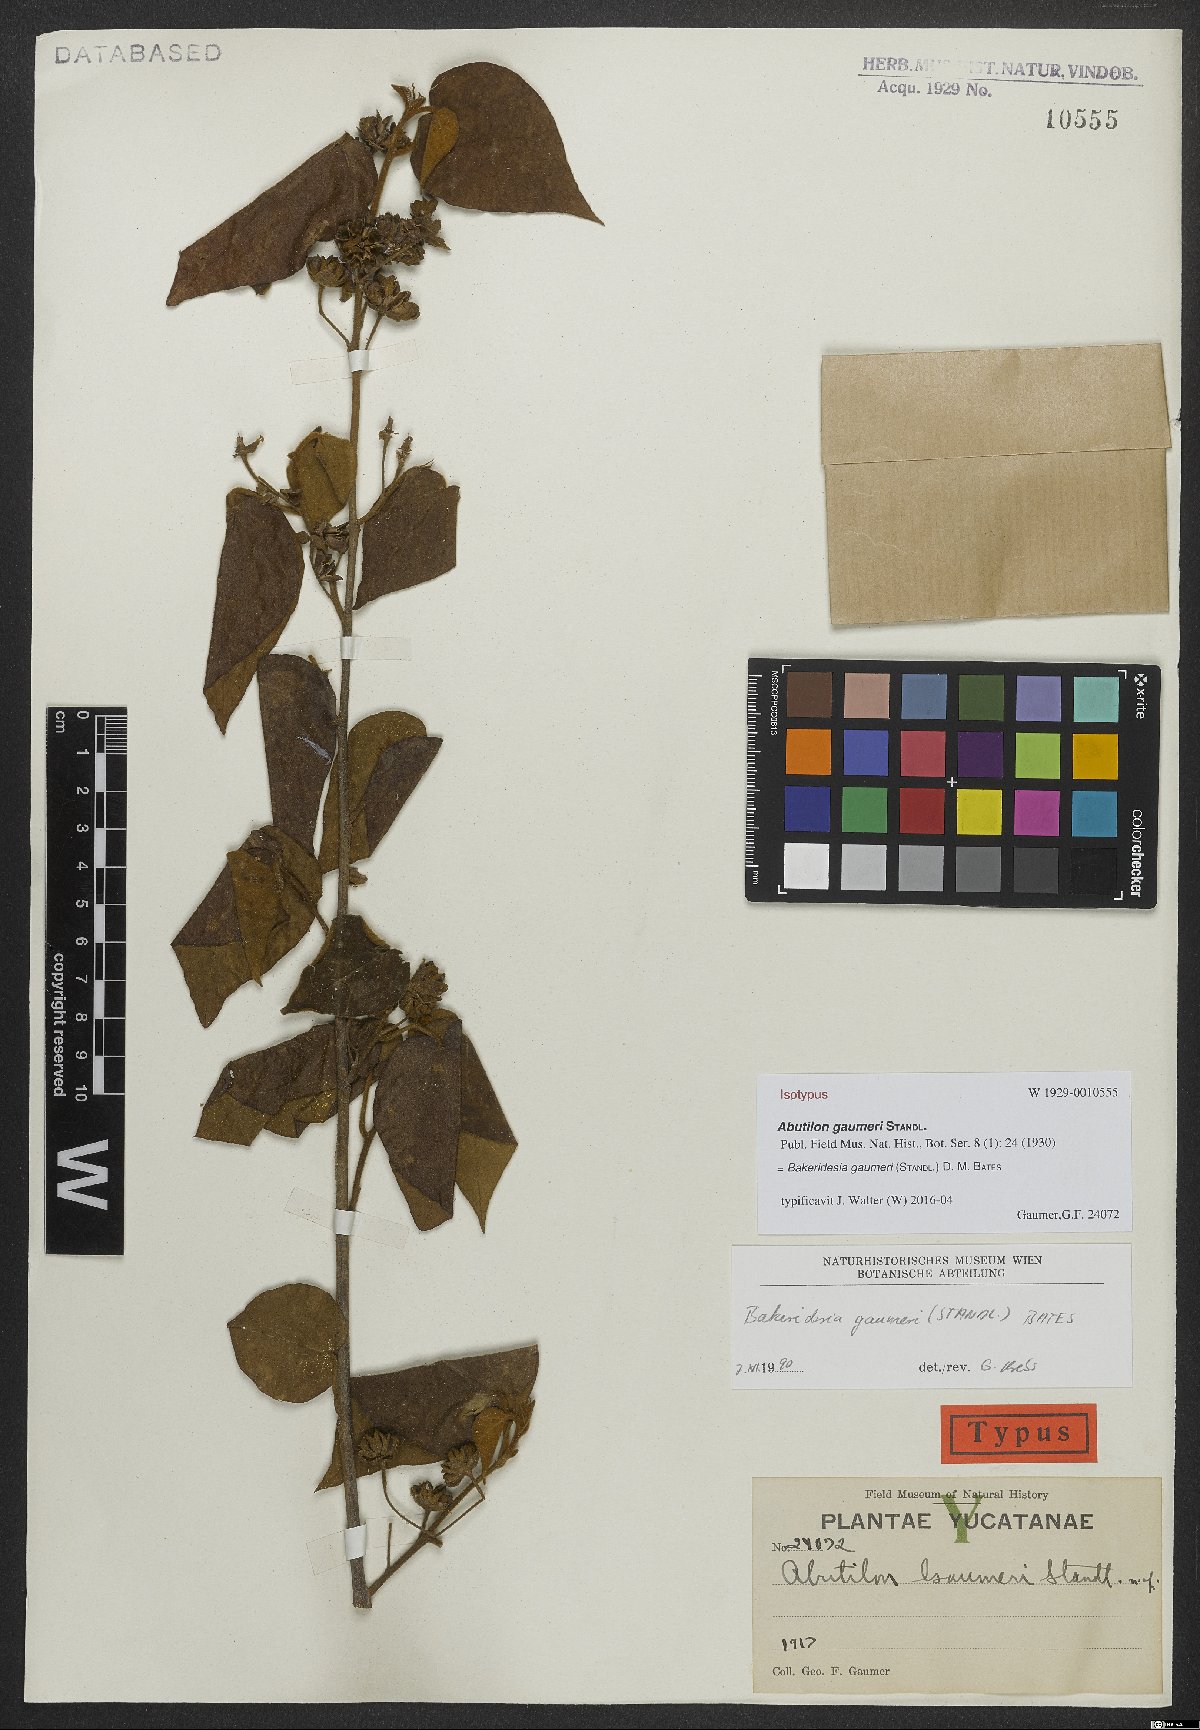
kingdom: Plantae
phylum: Tracheophyta
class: Magnoliopsida
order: Malvales
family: Malvaceae
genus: Bakeridesia
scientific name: Bakeridesia gaumeri
